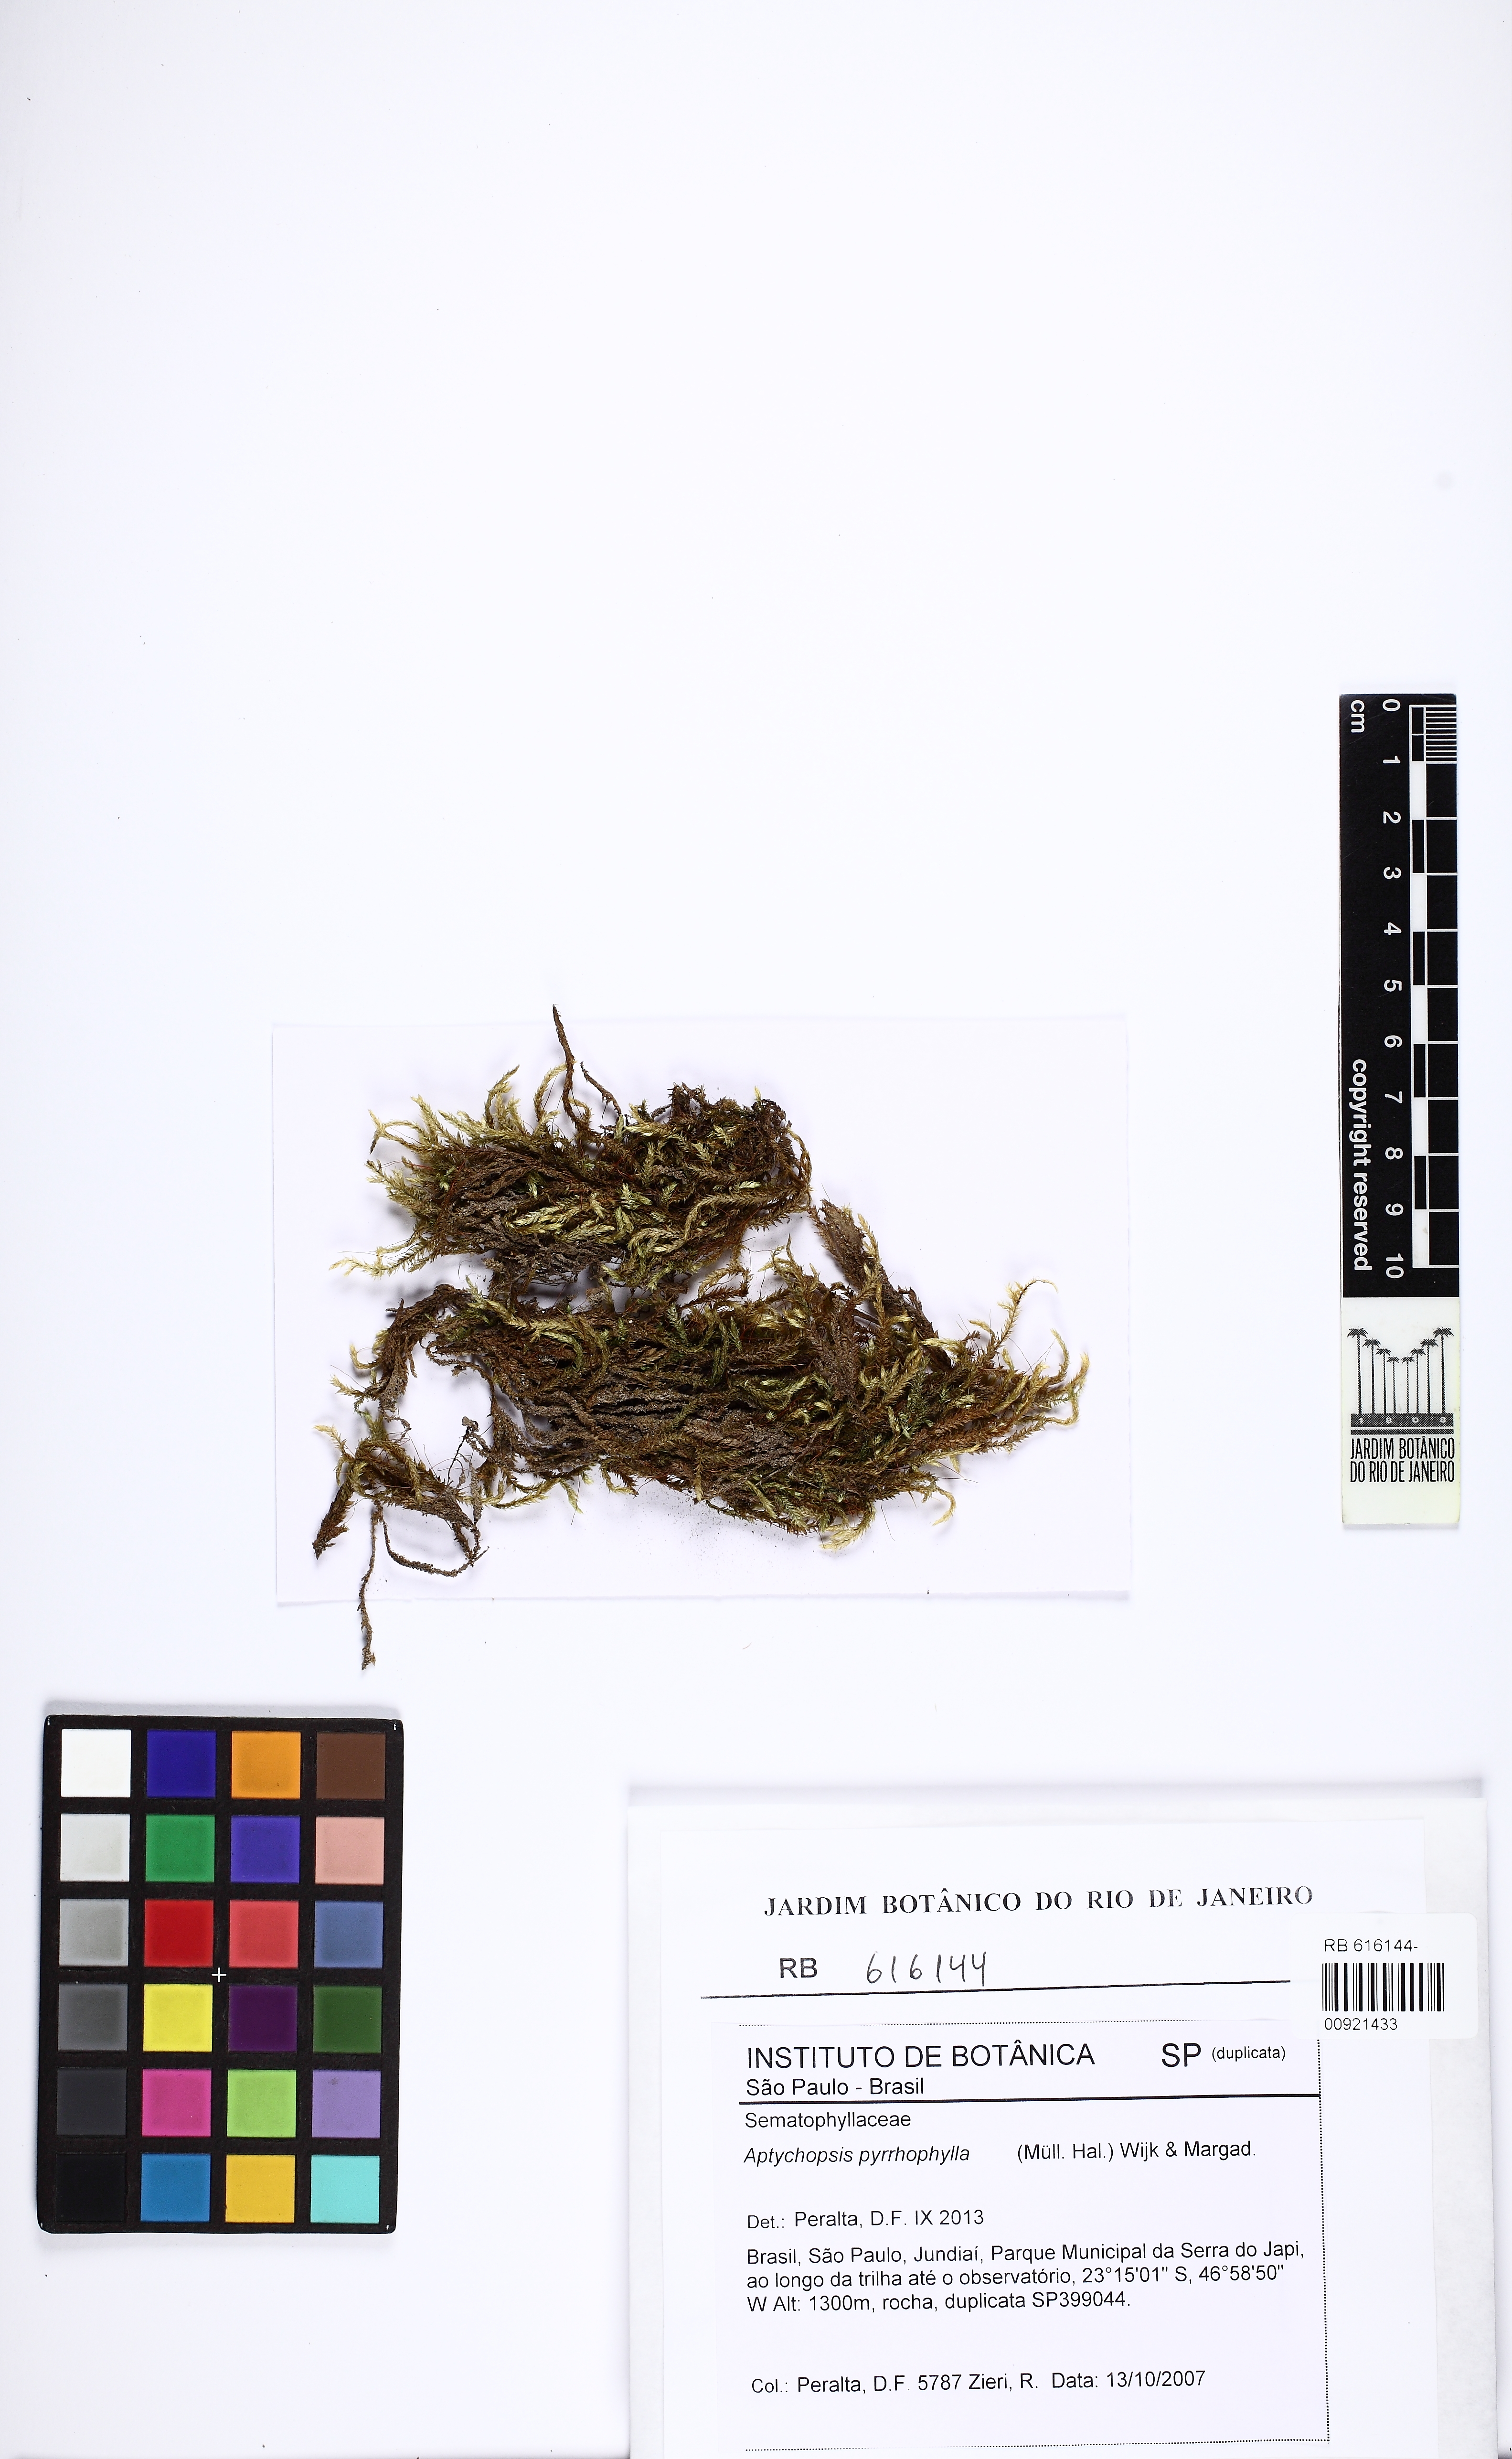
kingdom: Plantae
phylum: Bryophyta
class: Bryopsida
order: Hypnales
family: Sematophyllaceae
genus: Sematophyllum
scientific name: Sematophyllum succedaneum
